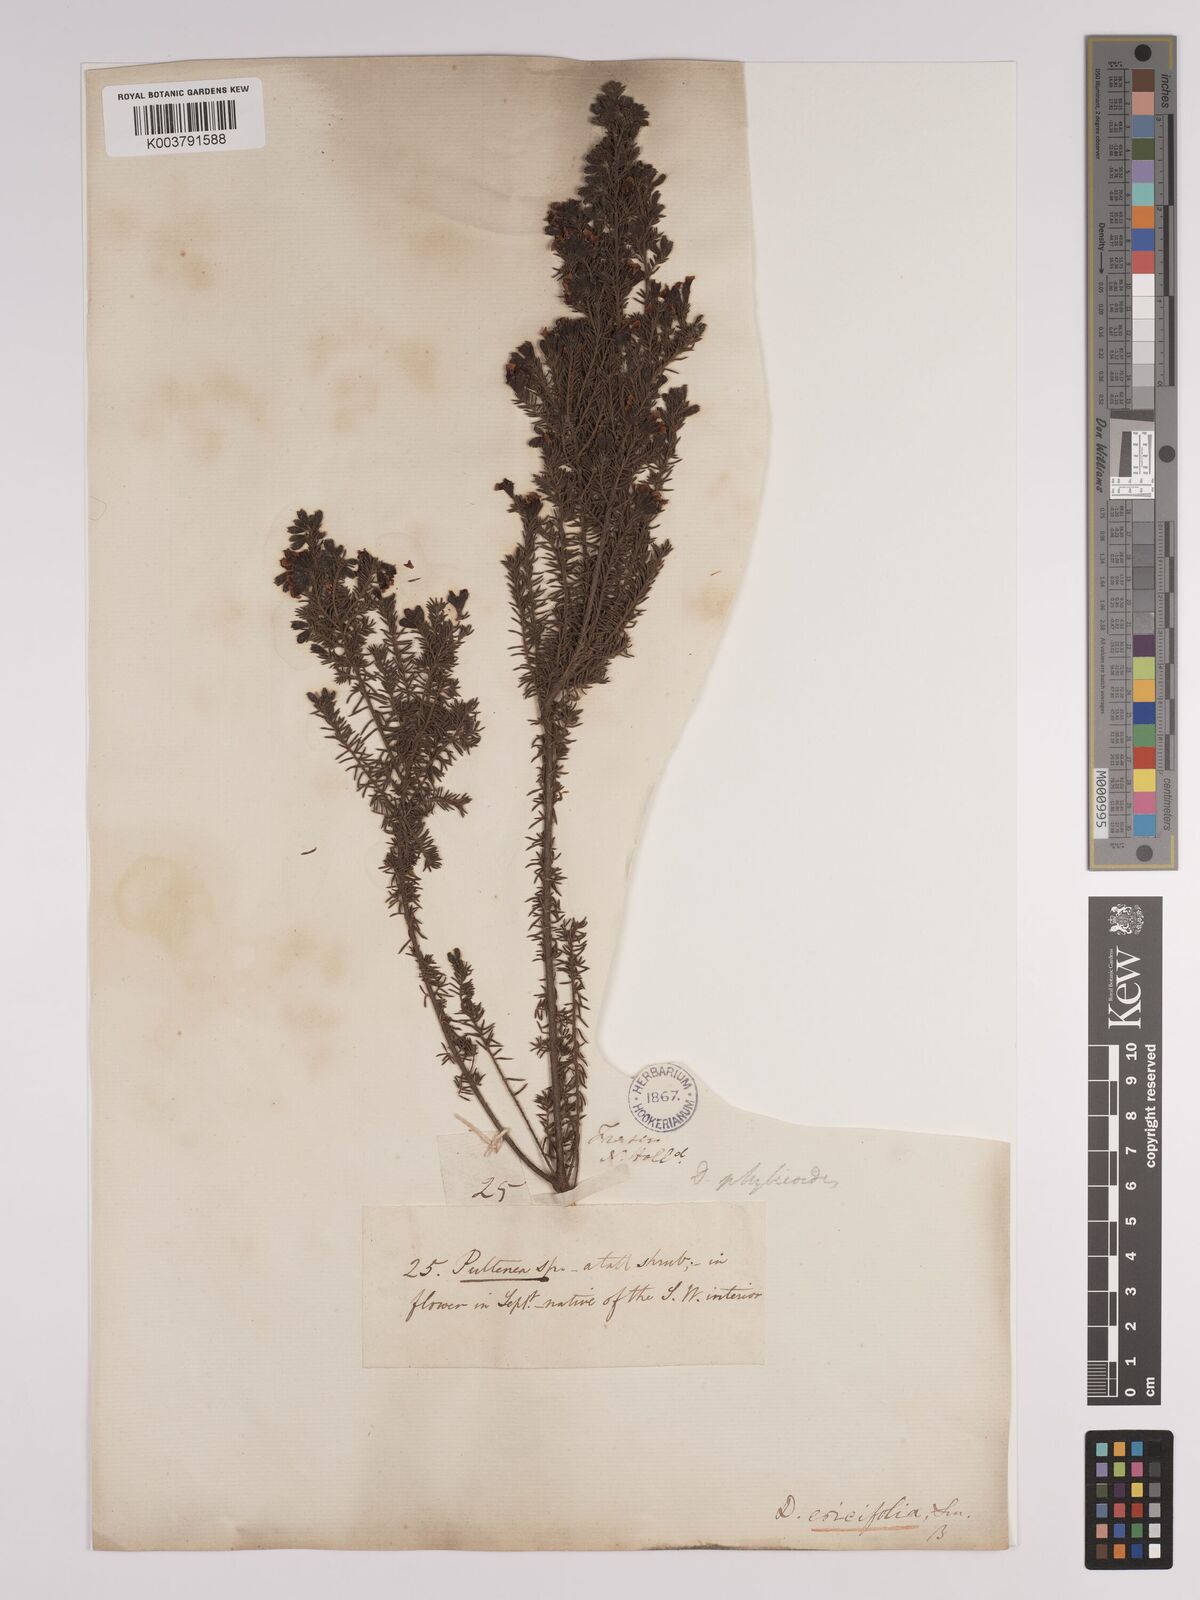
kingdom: Plantae
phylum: Tracheophyta
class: Magnoliopsida
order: Fabales
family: Fabaceae
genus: Dillwynia
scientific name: Dillwynia phylicoides
